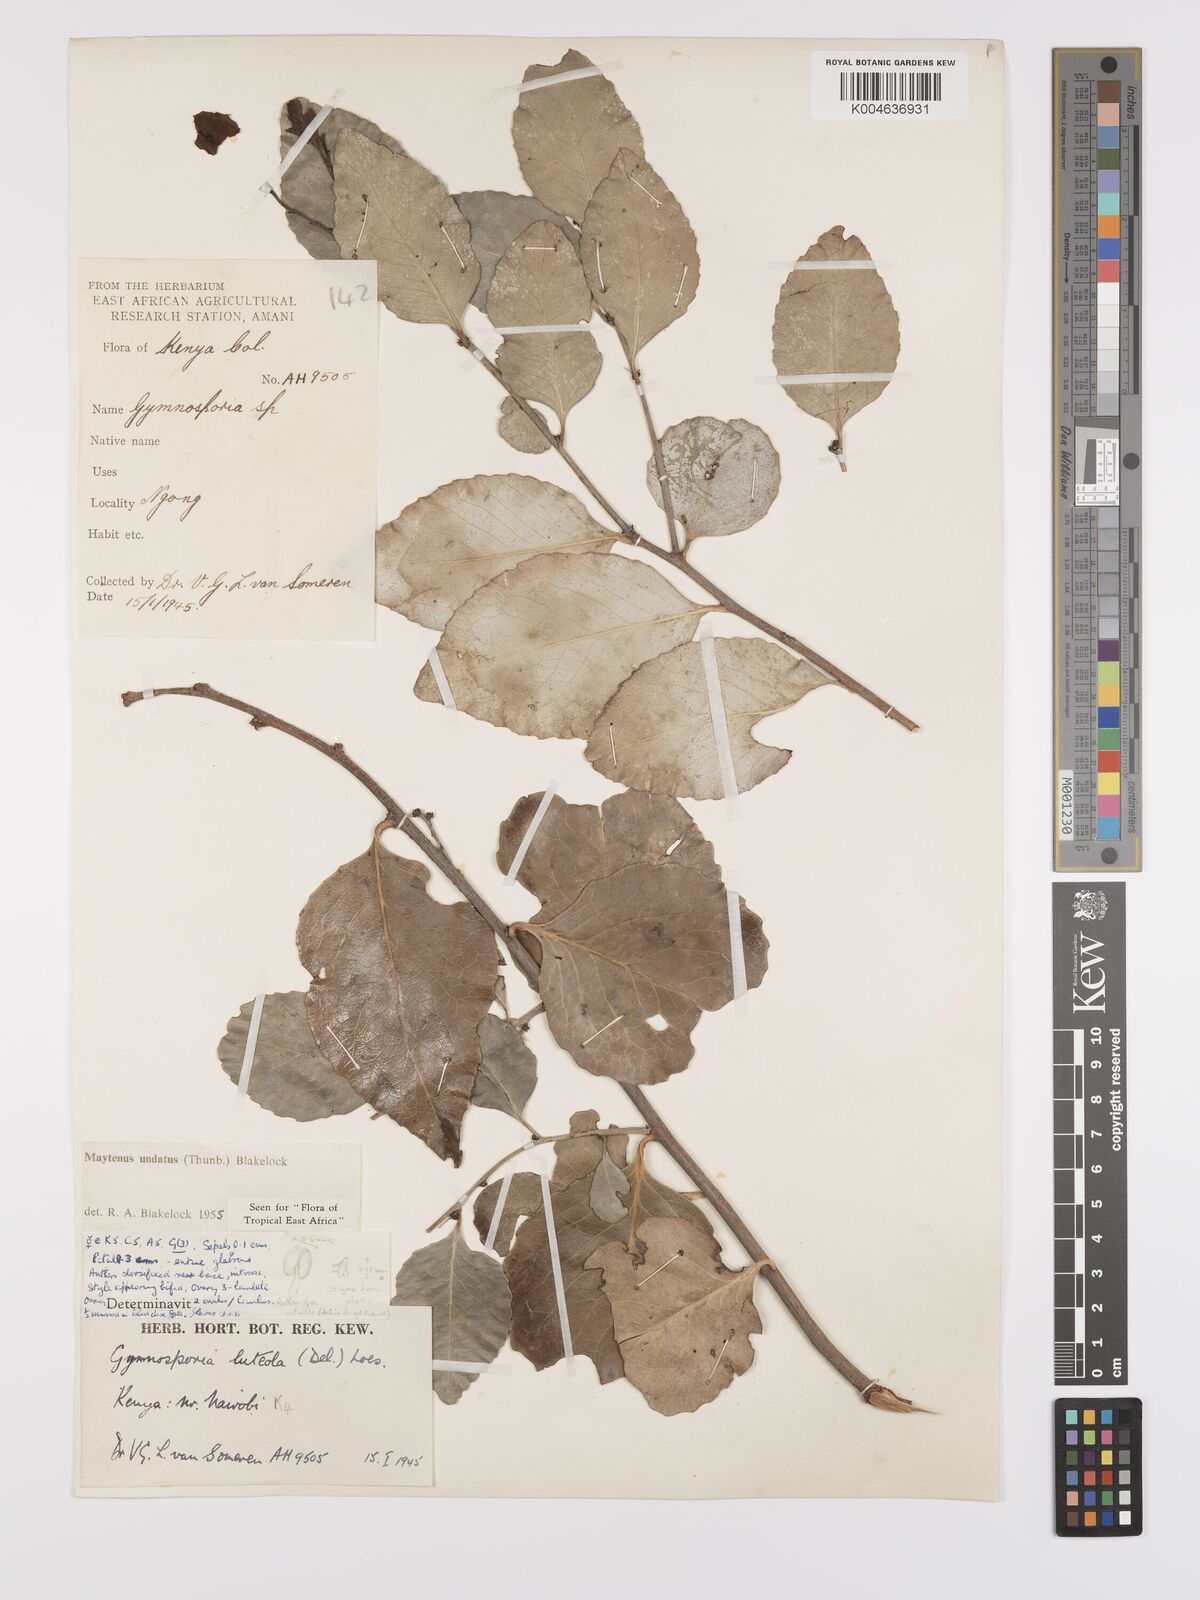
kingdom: Plantae
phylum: Tracheophyta
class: Magnoliopsida
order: Celastrales
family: Celastraceae
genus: Gymnosporia
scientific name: Gymnosporia undata
